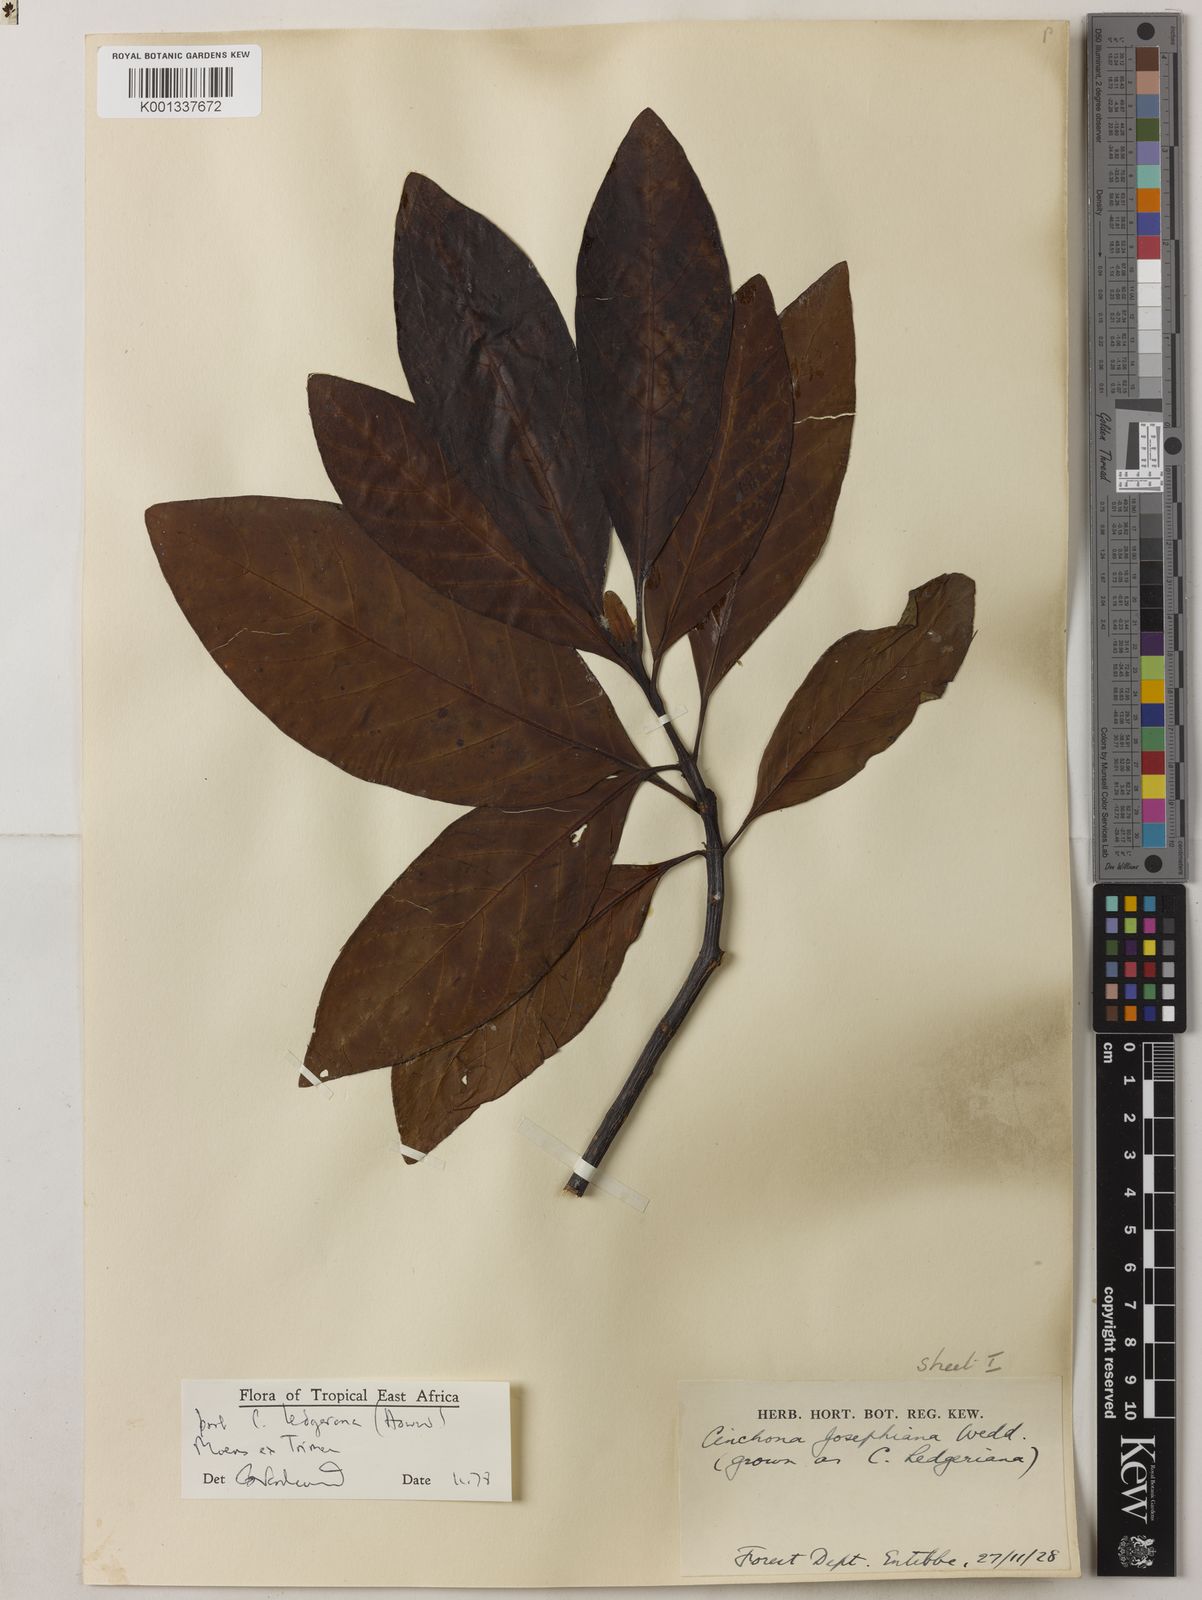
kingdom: Plantae
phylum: Tracheophyta
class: Magnoliopsida
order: Gentianales
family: Rubiaceae
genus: Cinchona
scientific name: Cinchona officinalis
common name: Lojabark
